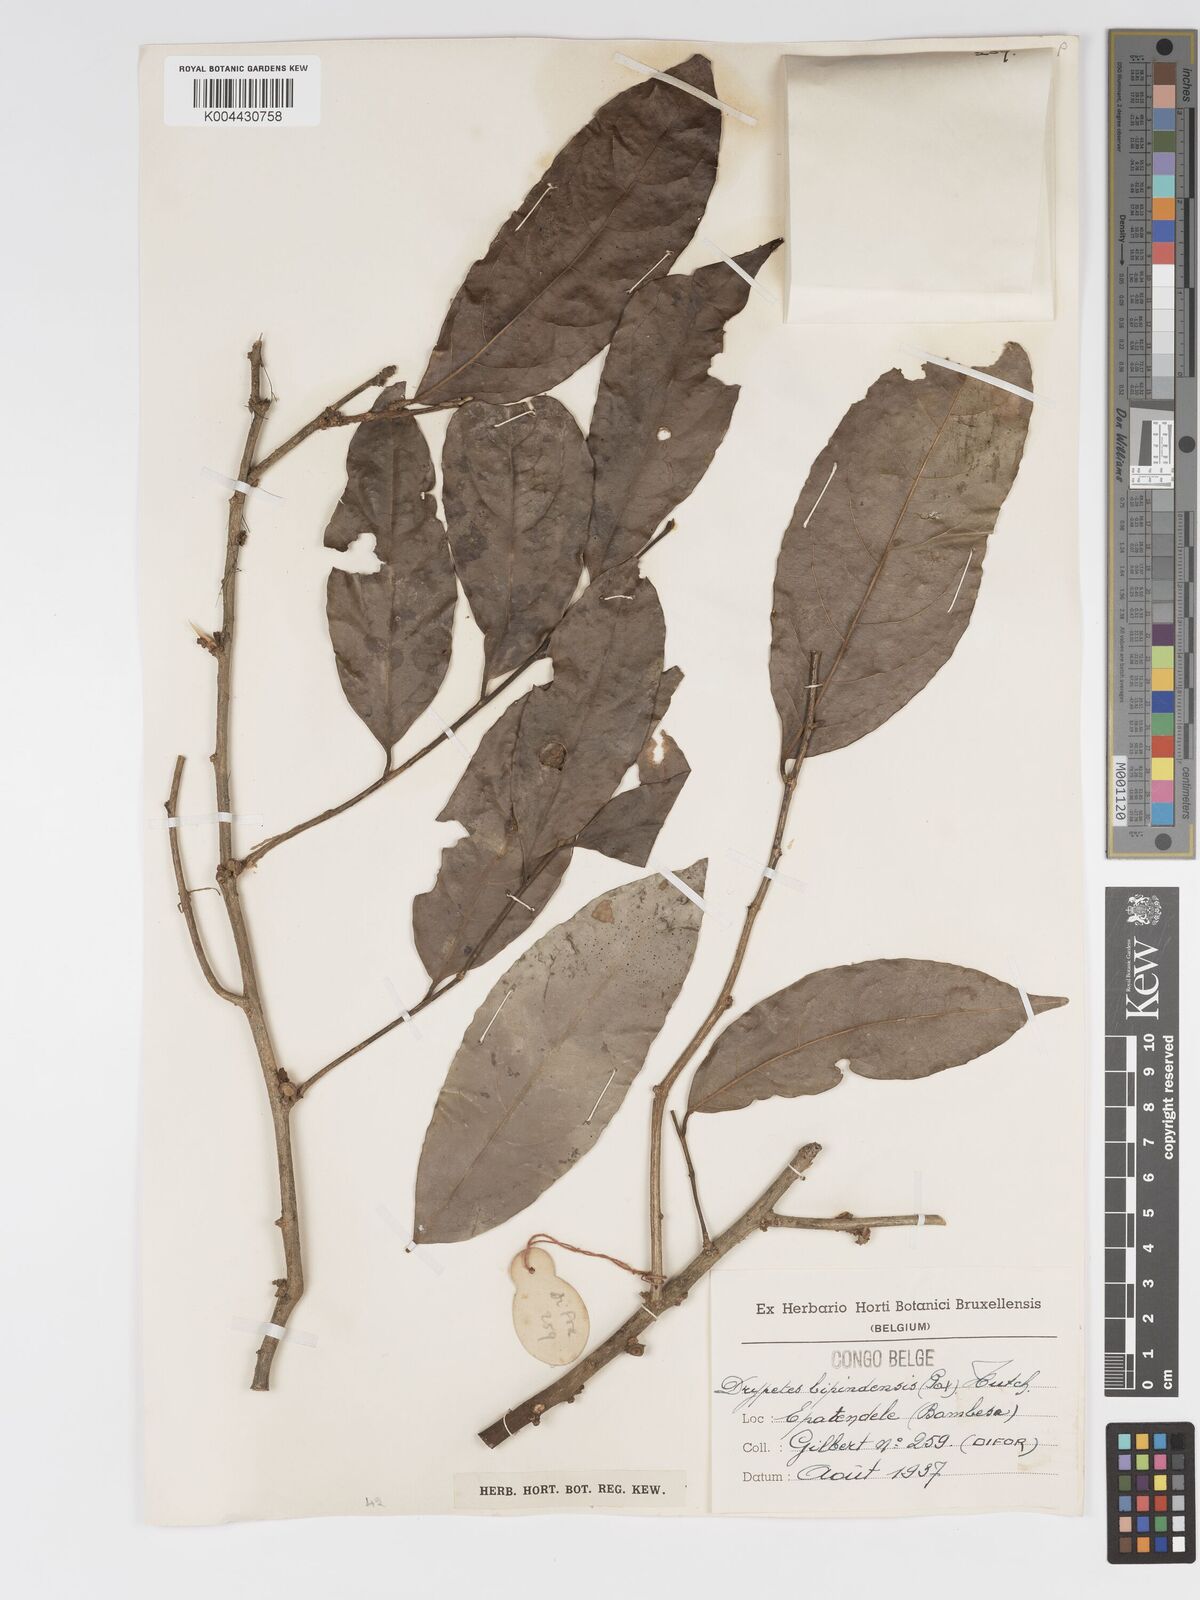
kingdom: Plantae
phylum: Tracheophyta
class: Magnoliopsida
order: Malpighiales
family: Putranjivaceae
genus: Drypetes
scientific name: Drypetes bipindensis
